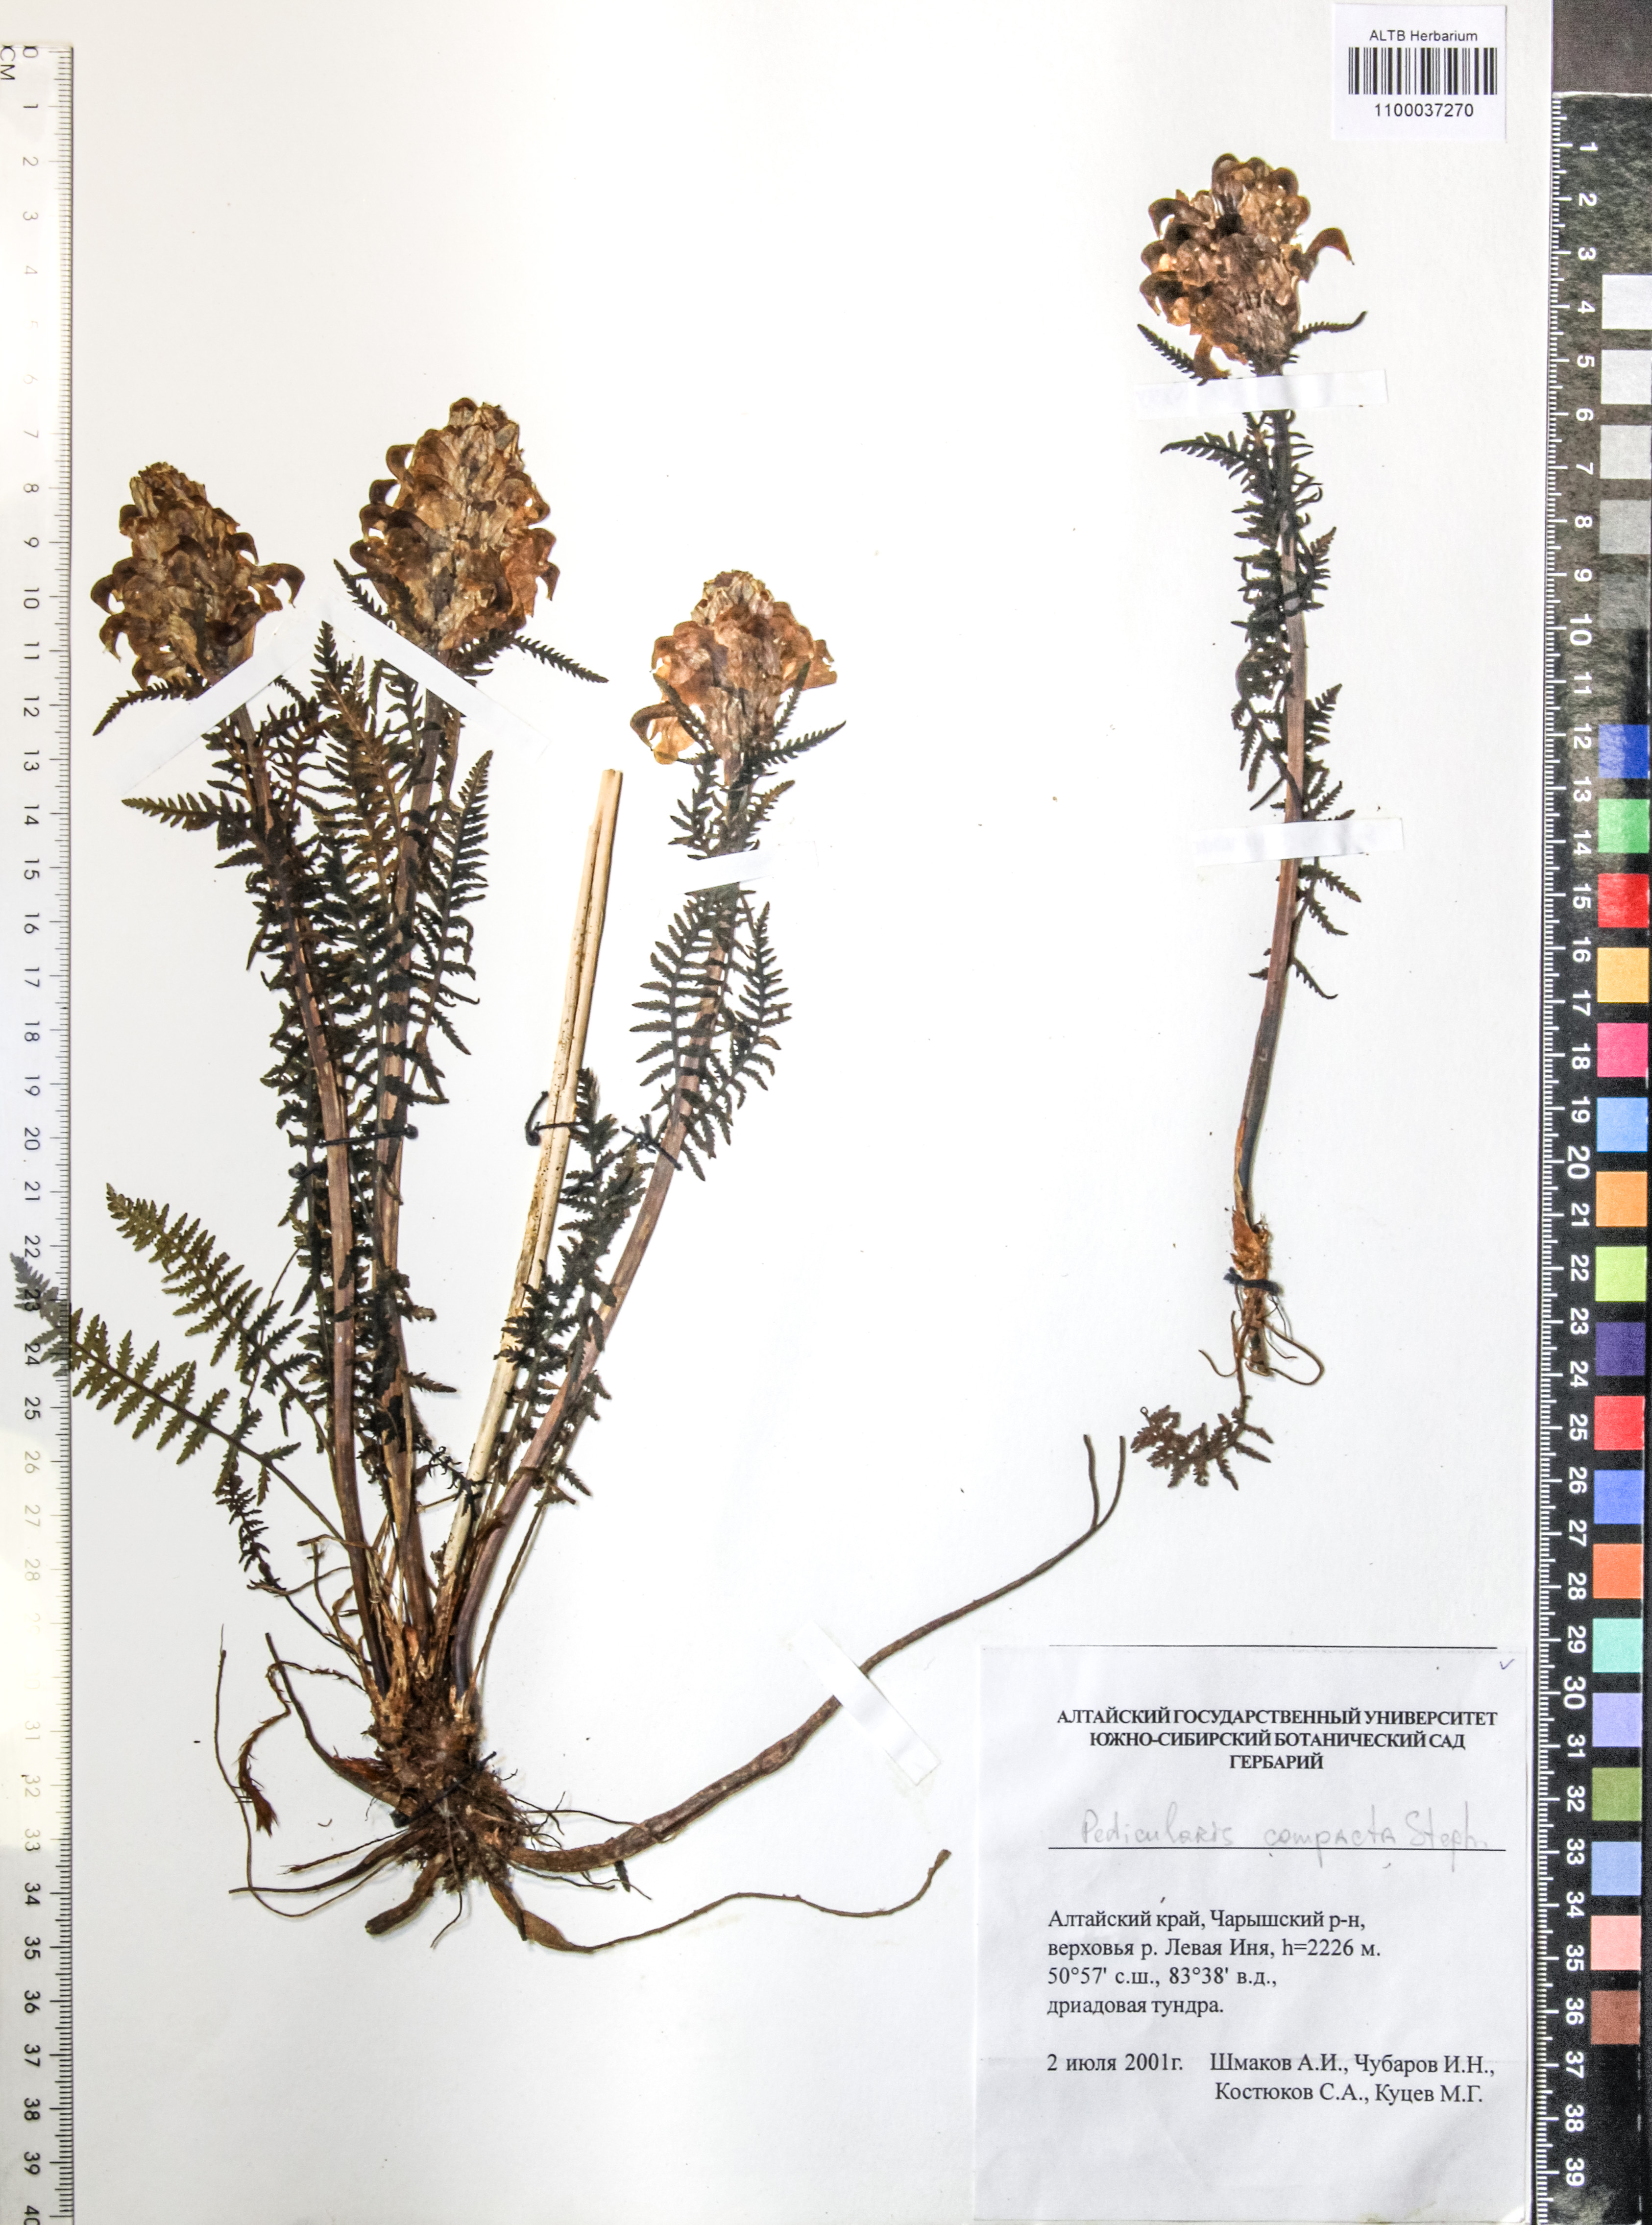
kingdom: Plantae
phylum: Tracheophyta
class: Magnoliopsida
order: Lamiales
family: Orobanchaceae
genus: Pedicularis
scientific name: Pedicularis compacta
